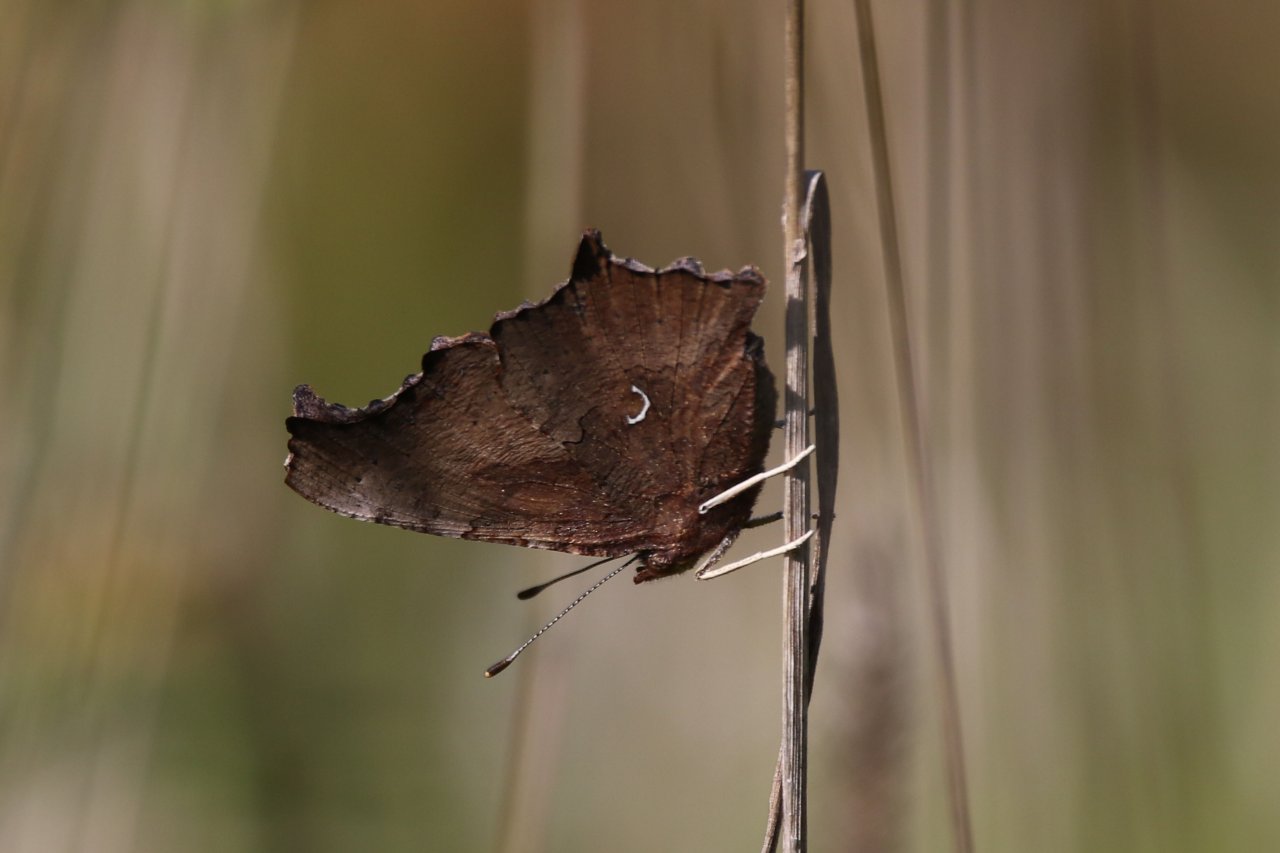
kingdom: Animalia
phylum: Arthropoda
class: Insecta
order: Lepidoptera
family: Nymphalidae
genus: Polygonia
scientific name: Polygonia comma
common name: Eastern Comma
